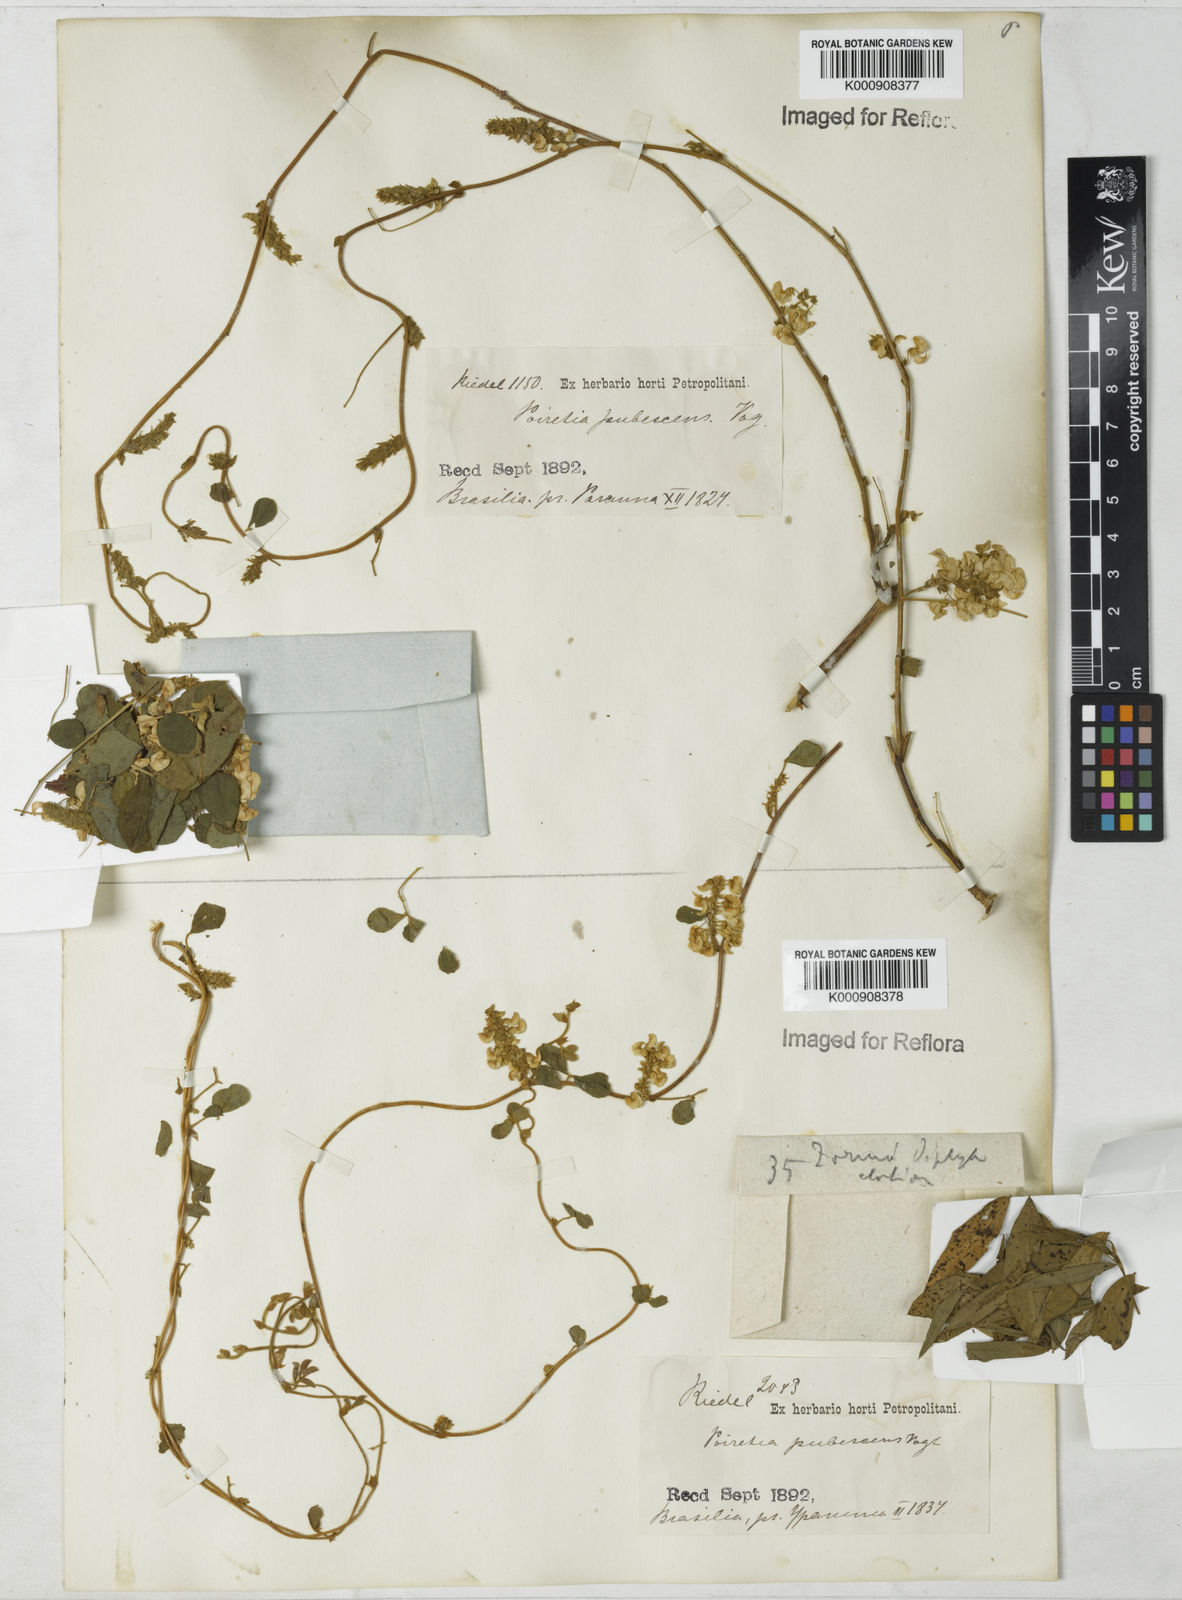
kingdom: Plantae
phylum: Tracheophyta
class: Magnoliopsida
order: Fabales
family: Fabaceae
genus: Poiretia
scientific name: Poiretia punctata
